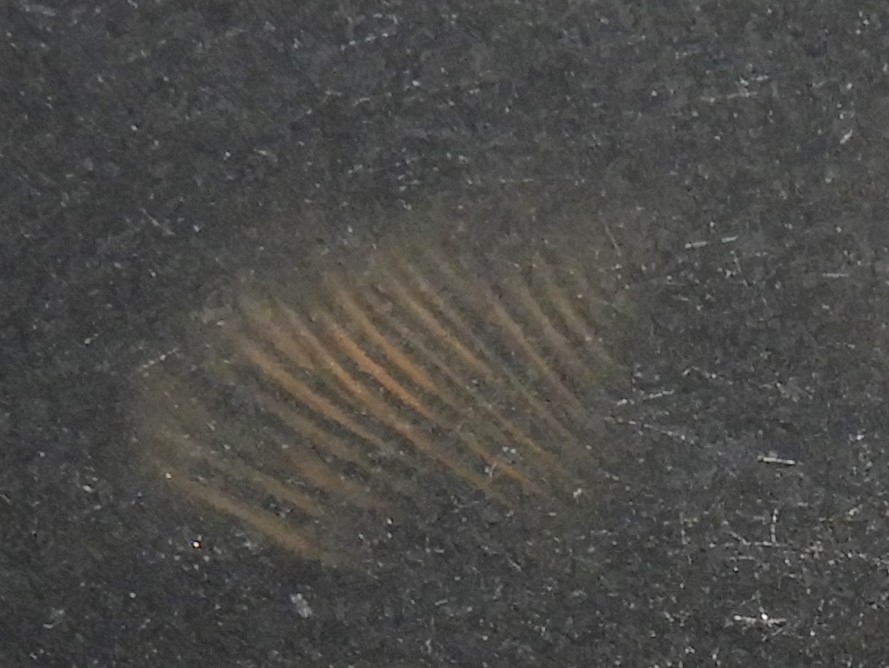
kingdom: Fungi
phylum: Basidiomycota
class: Agaricomycetes
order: Agaricales
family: Pluteaceae
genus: Pluteus
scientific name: Pluteus cervinus
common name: sodfarvet skærmhat
